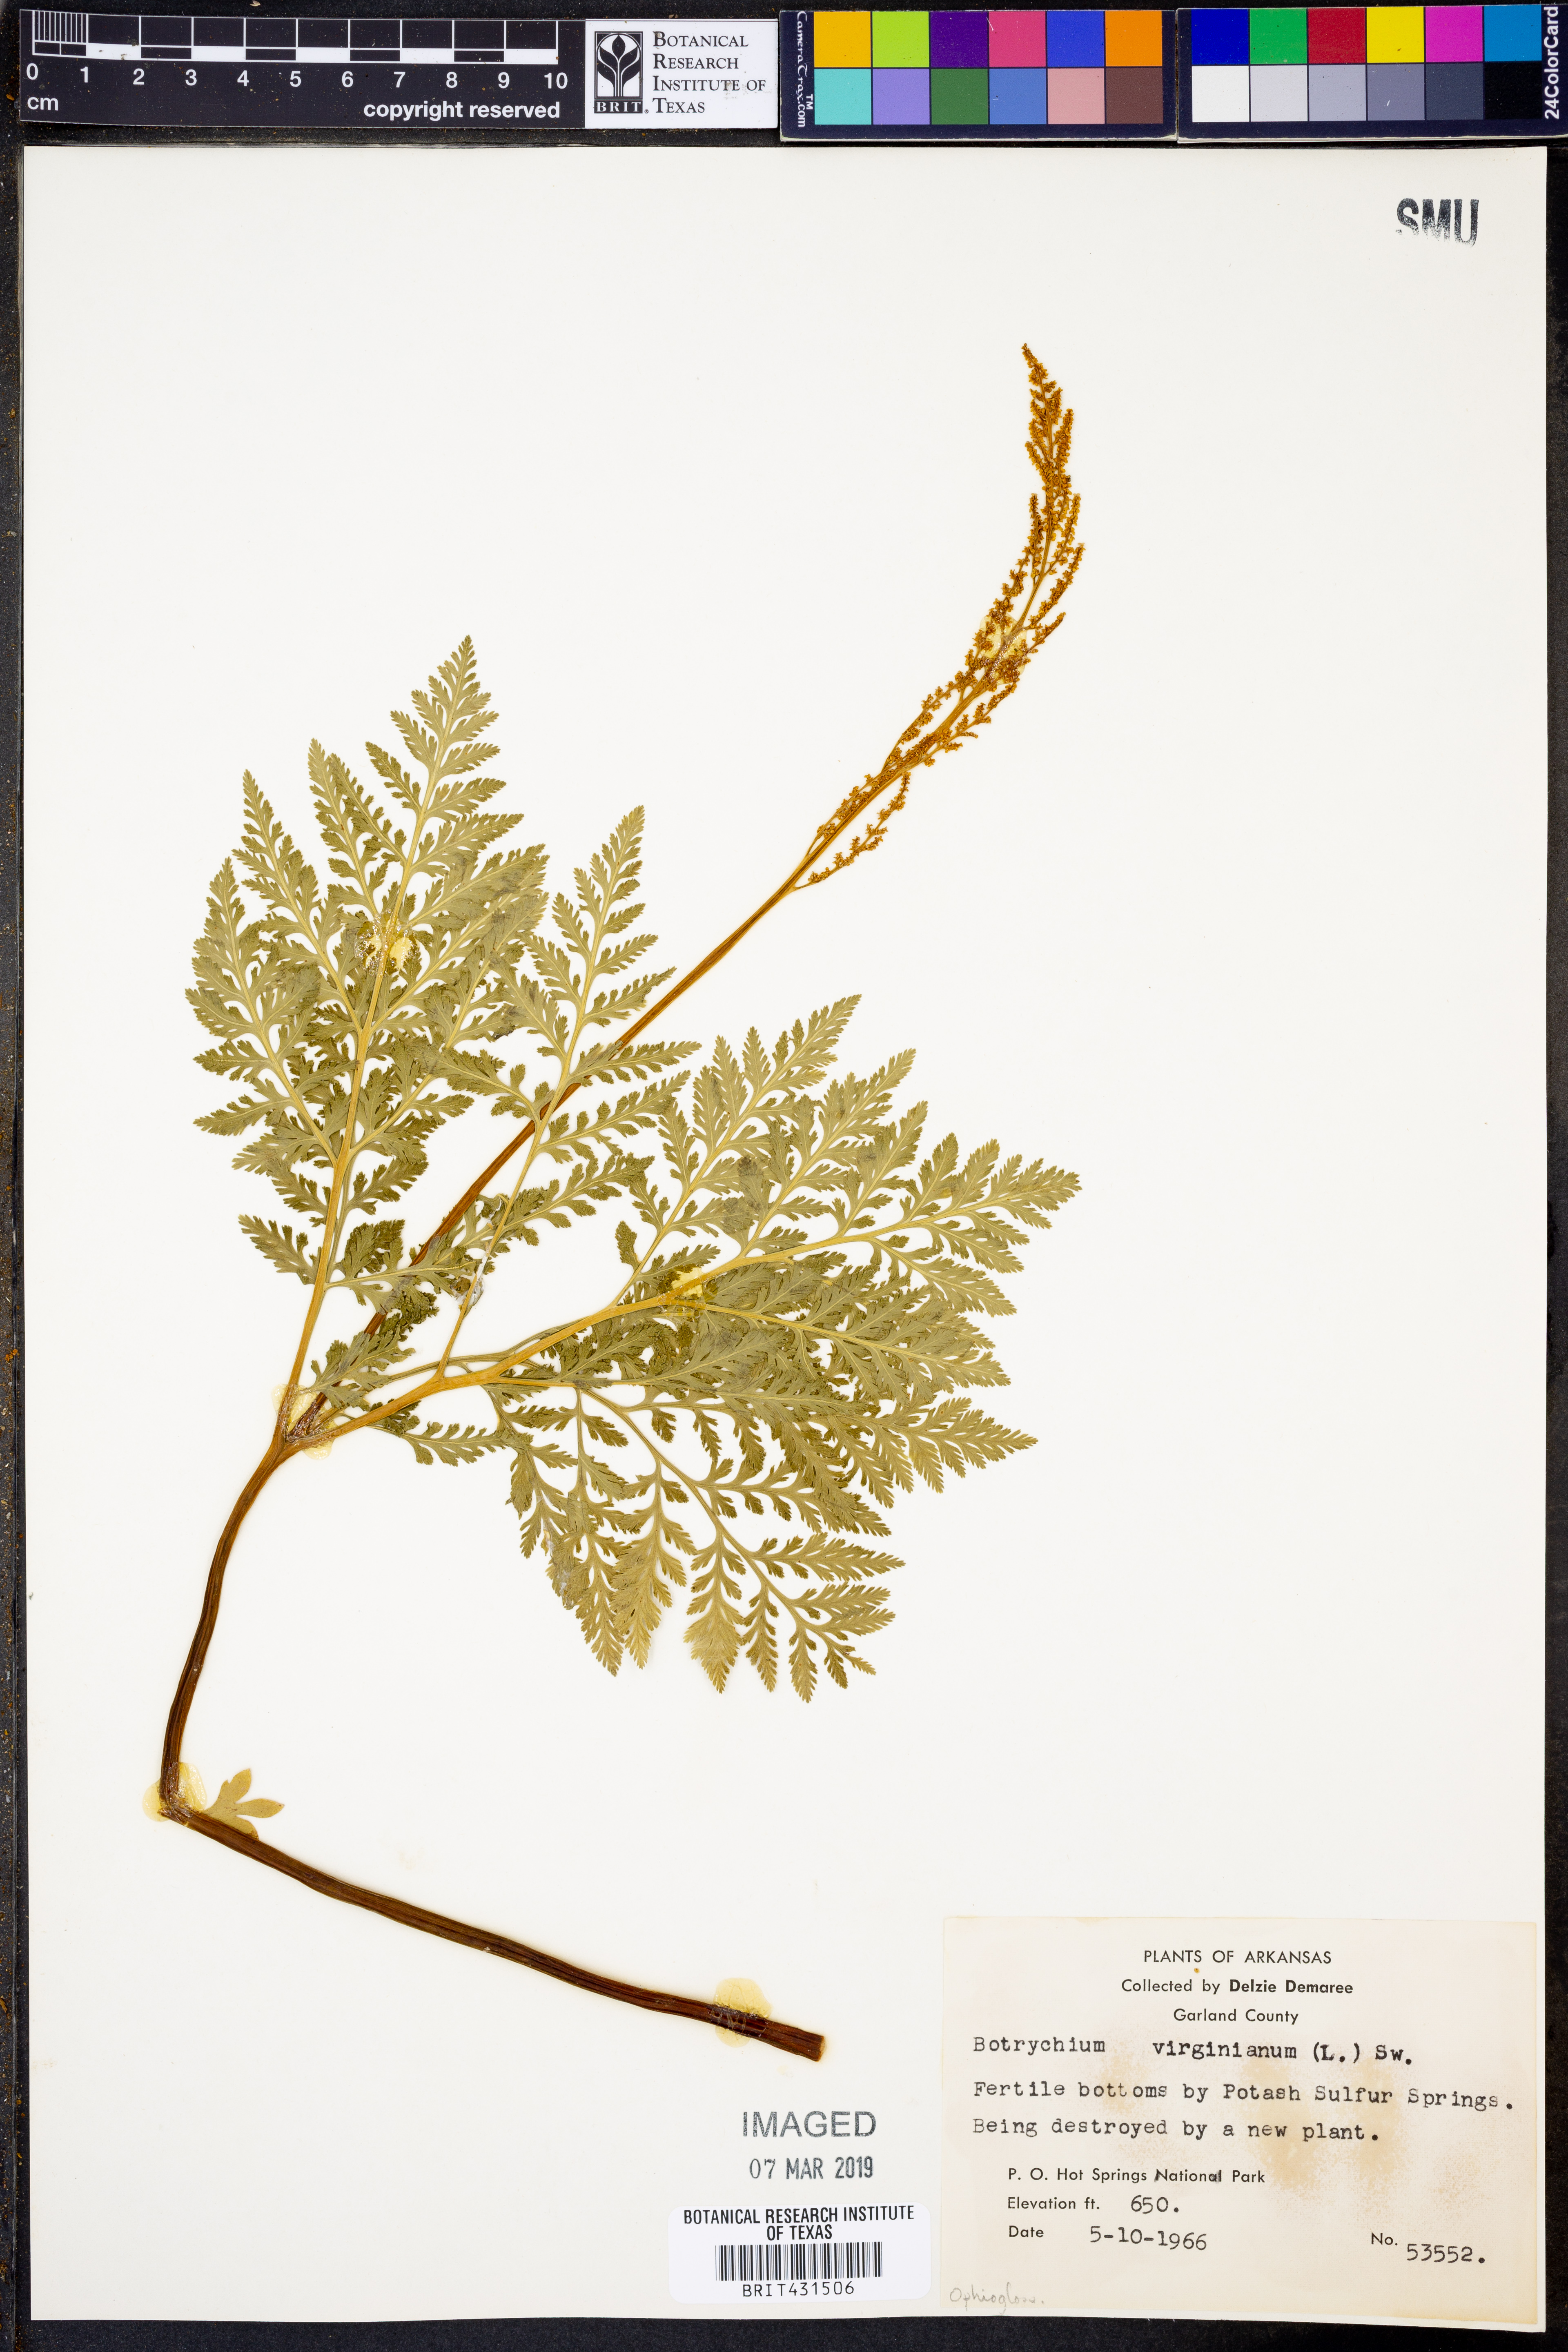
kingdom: Plantae
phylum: Tracheophyta
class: Polypodiopsida
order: Ophioglossales
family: Ophioglossaceae
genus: Botrypus
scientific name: Botrypus virginianus
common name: Common grapefern
